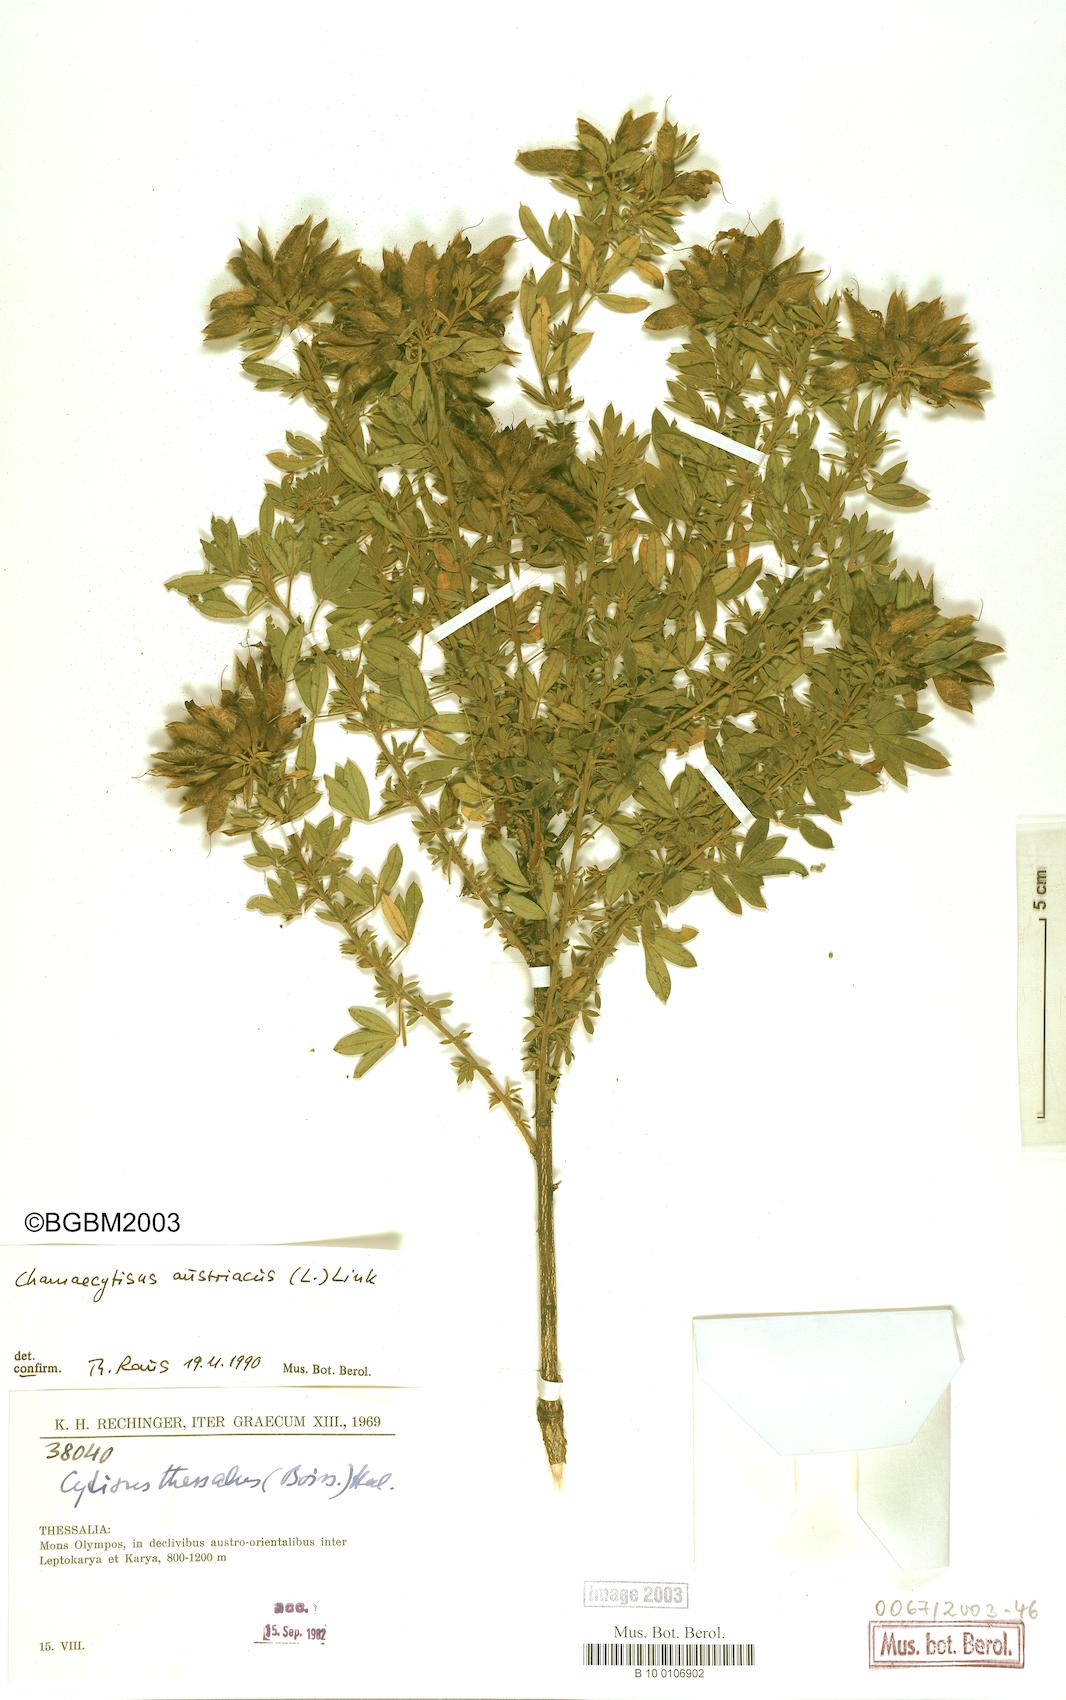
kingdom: Plantae
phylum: Tracheophyta
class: Magnoliopsida
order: Fabales
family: Fabaceae
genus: Chamaecytisus
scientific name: Chamaecytisus austriacus
